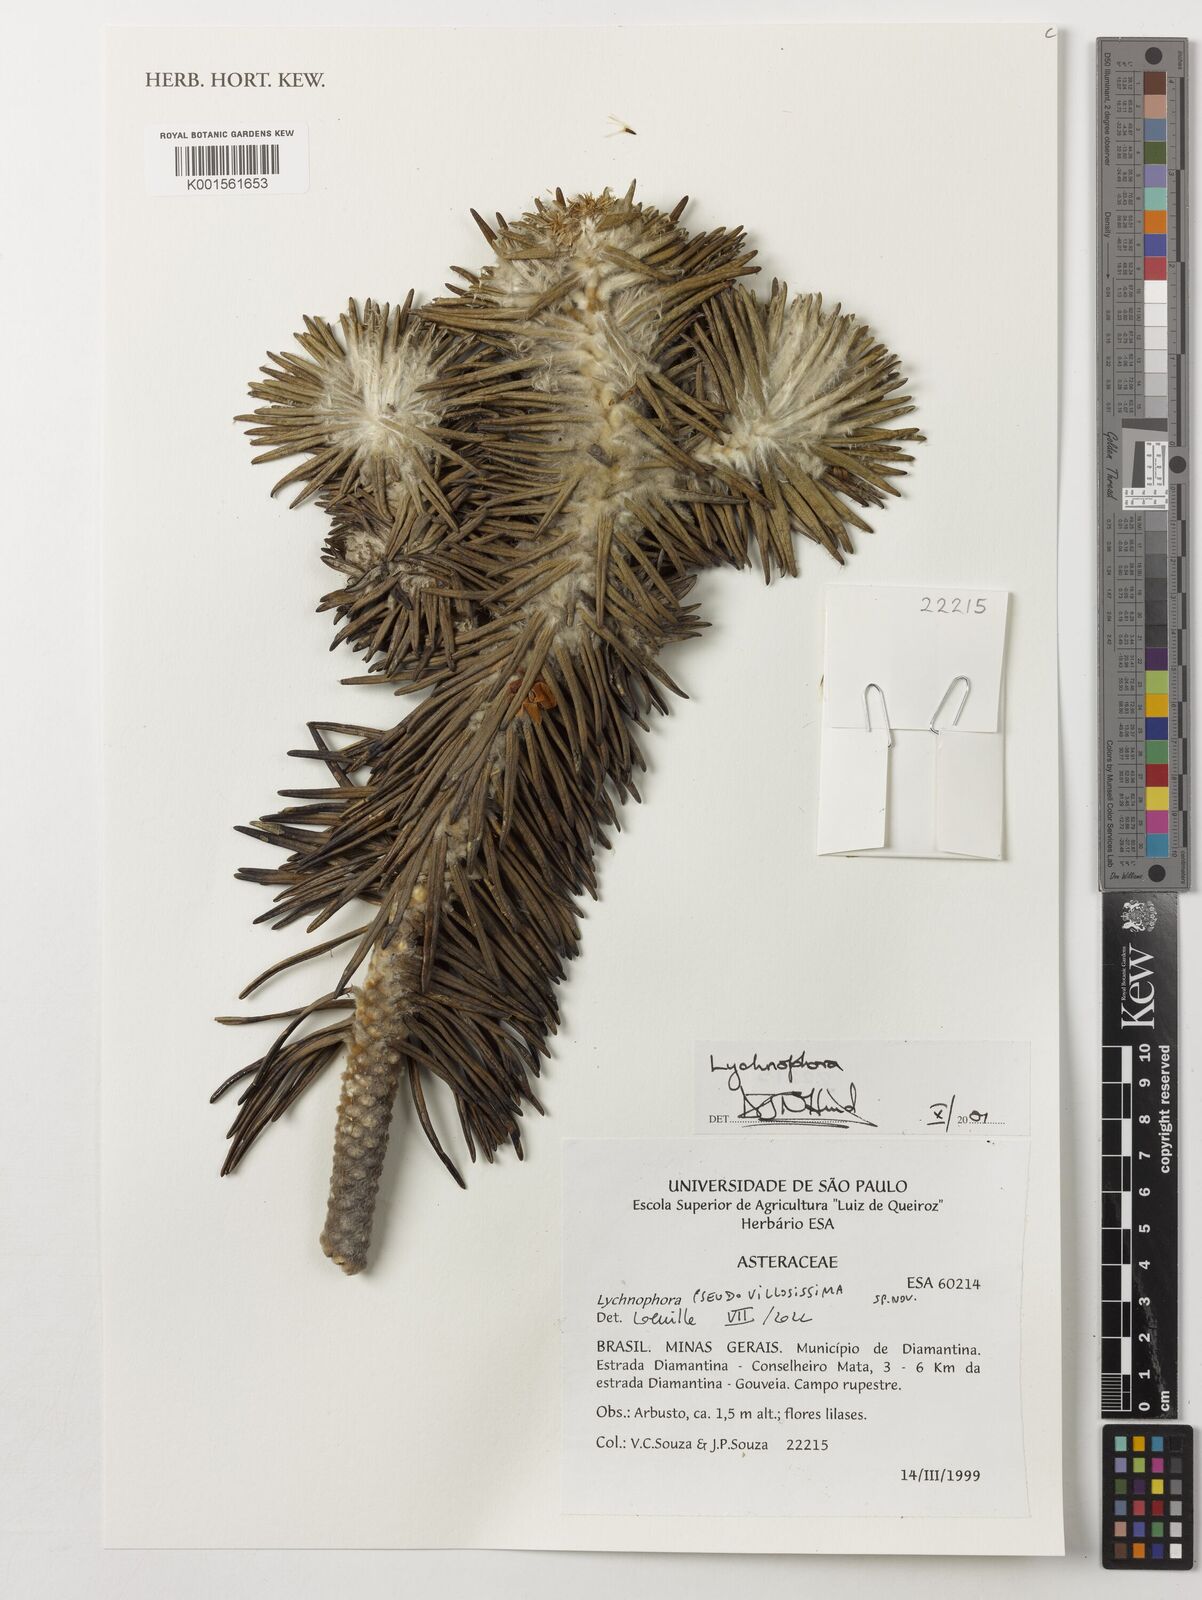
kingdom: Plantae
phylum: Tracheophyta
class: Magnoliopsida
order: Asterales
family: Asteraceae
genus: Lychnophora
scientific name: Lychnophora
